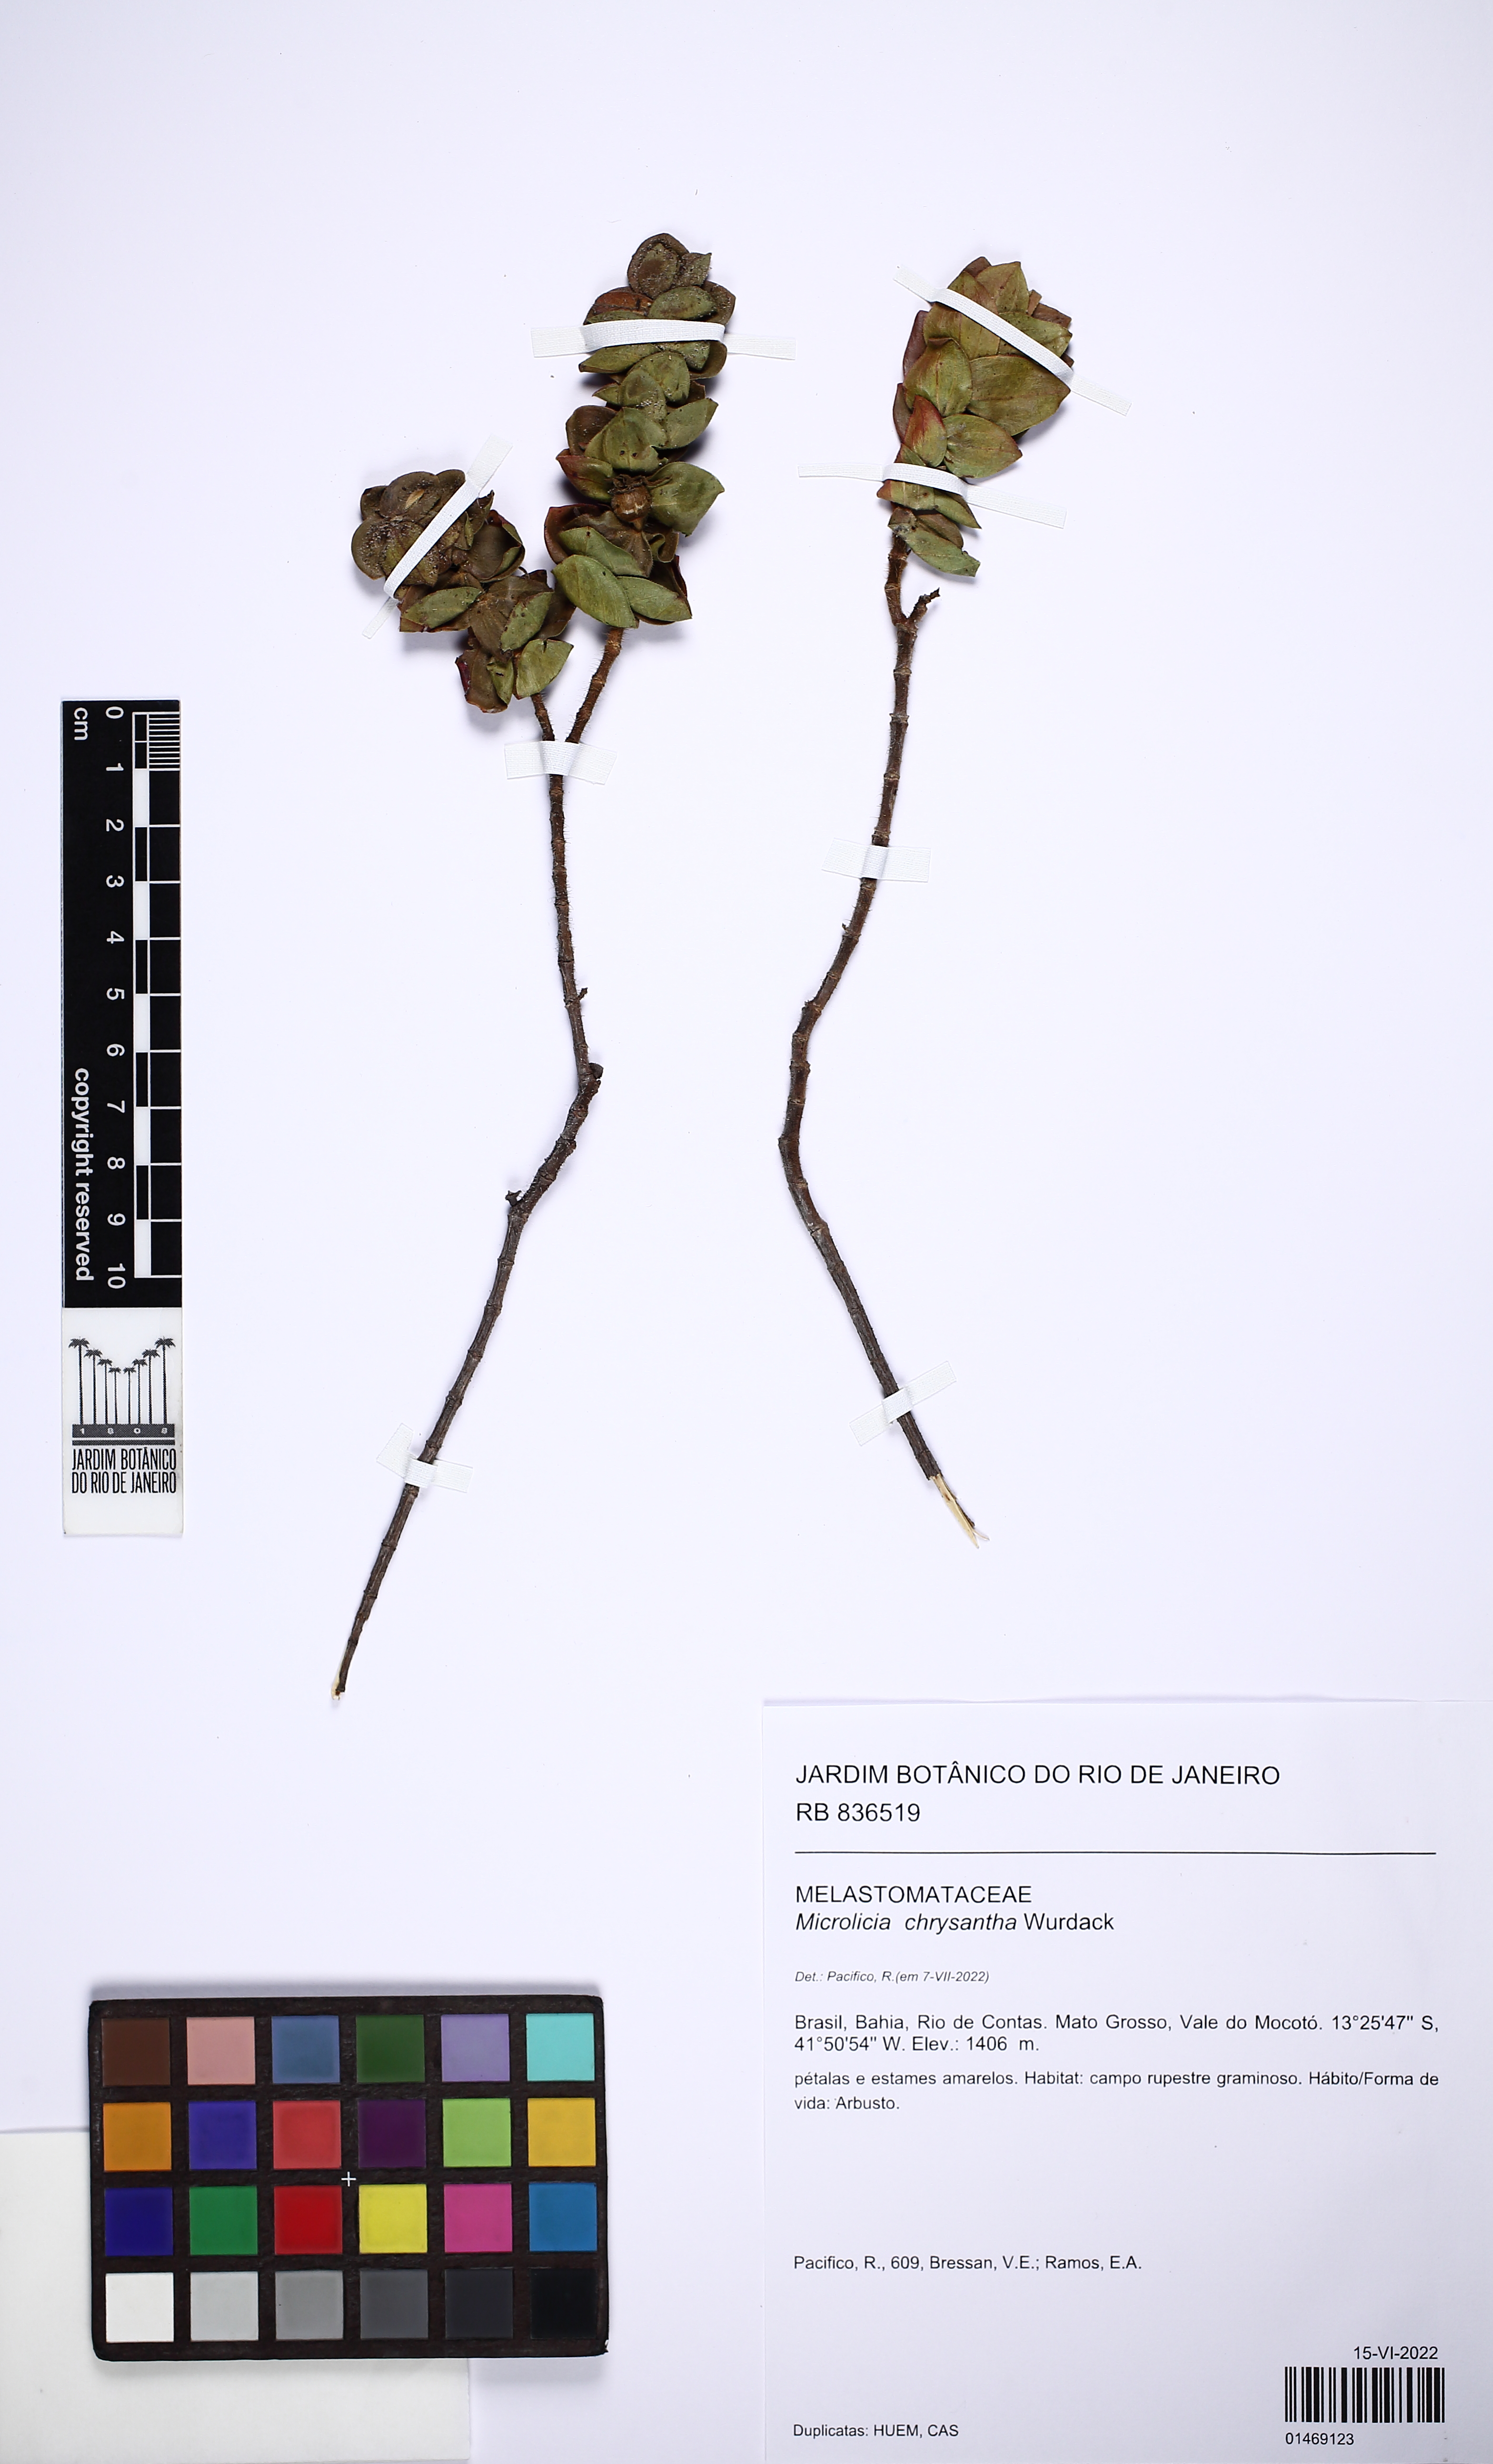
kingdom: Plantae
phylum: Tracheophyta
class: Magnoliopsida
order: Myrtales
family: Melastomataceae
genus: Microlicia
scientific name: Microlicia chrysantha
